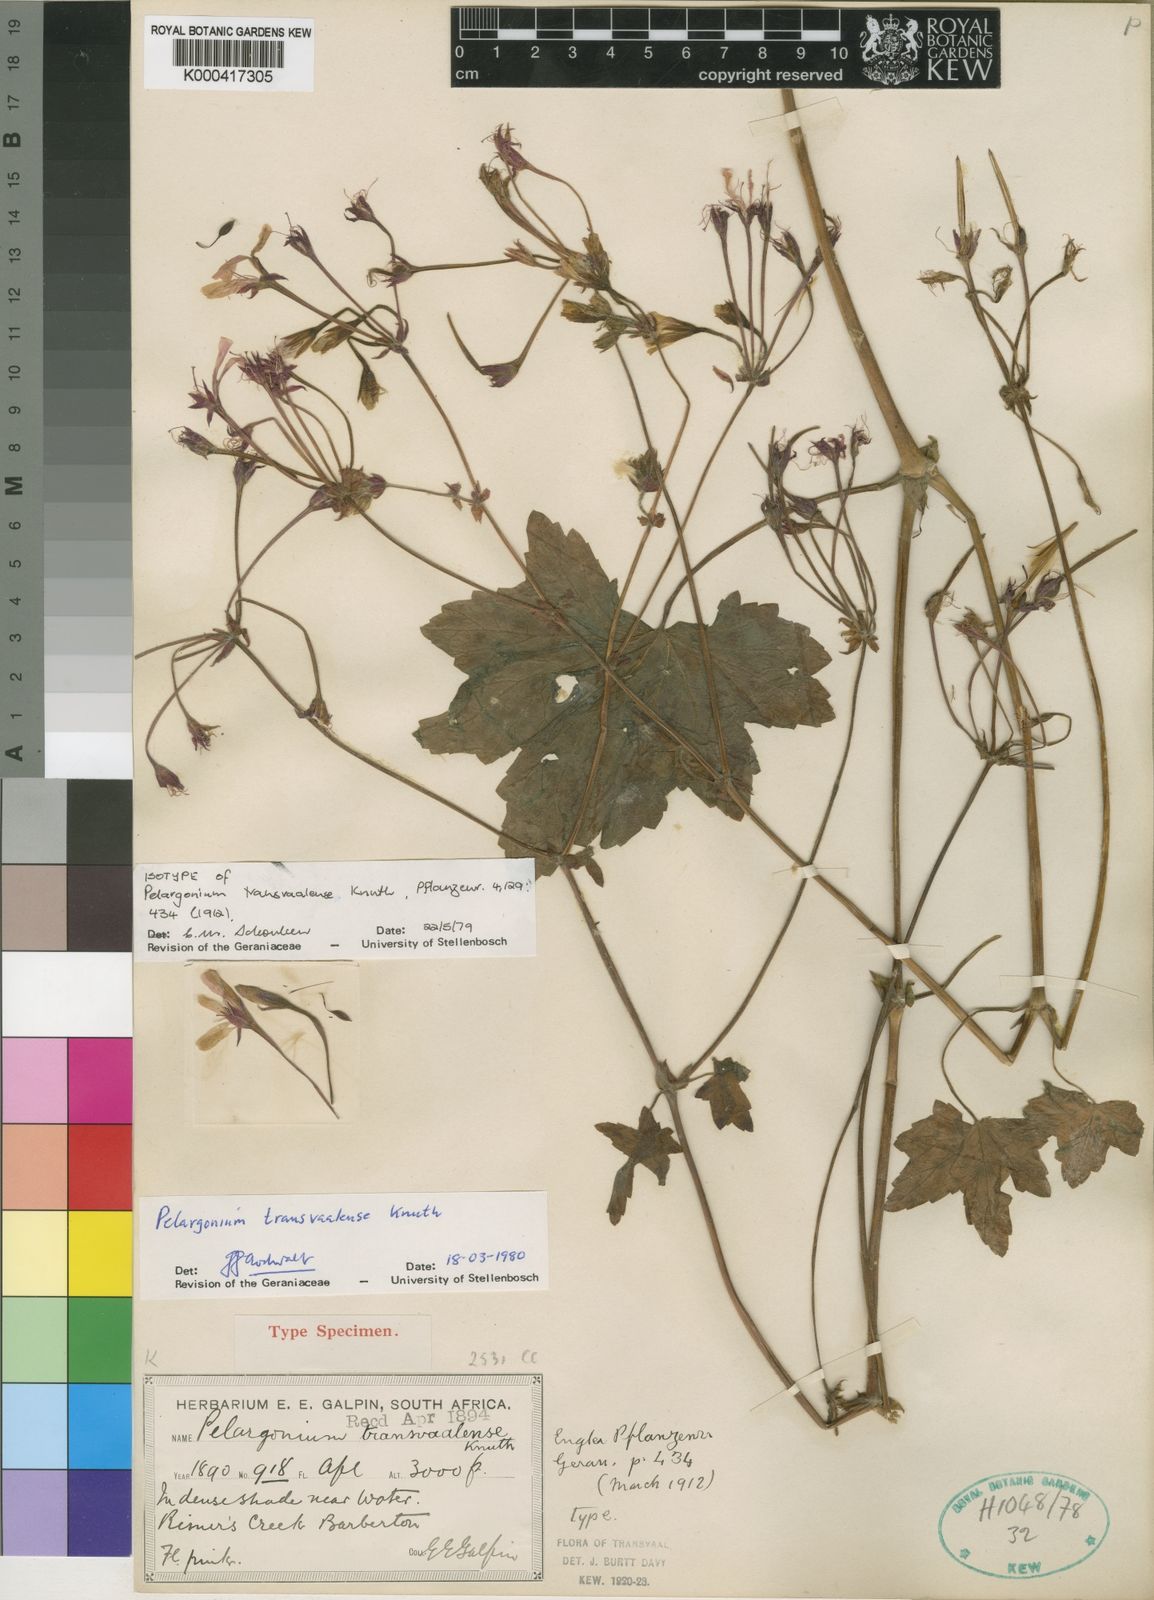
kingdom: Plantae
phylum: Tracheophyta
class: Magnoliopsida
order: Geraniales
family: Geraniaceae
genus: Pelargonium
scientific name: Pelargonium transvaalense
